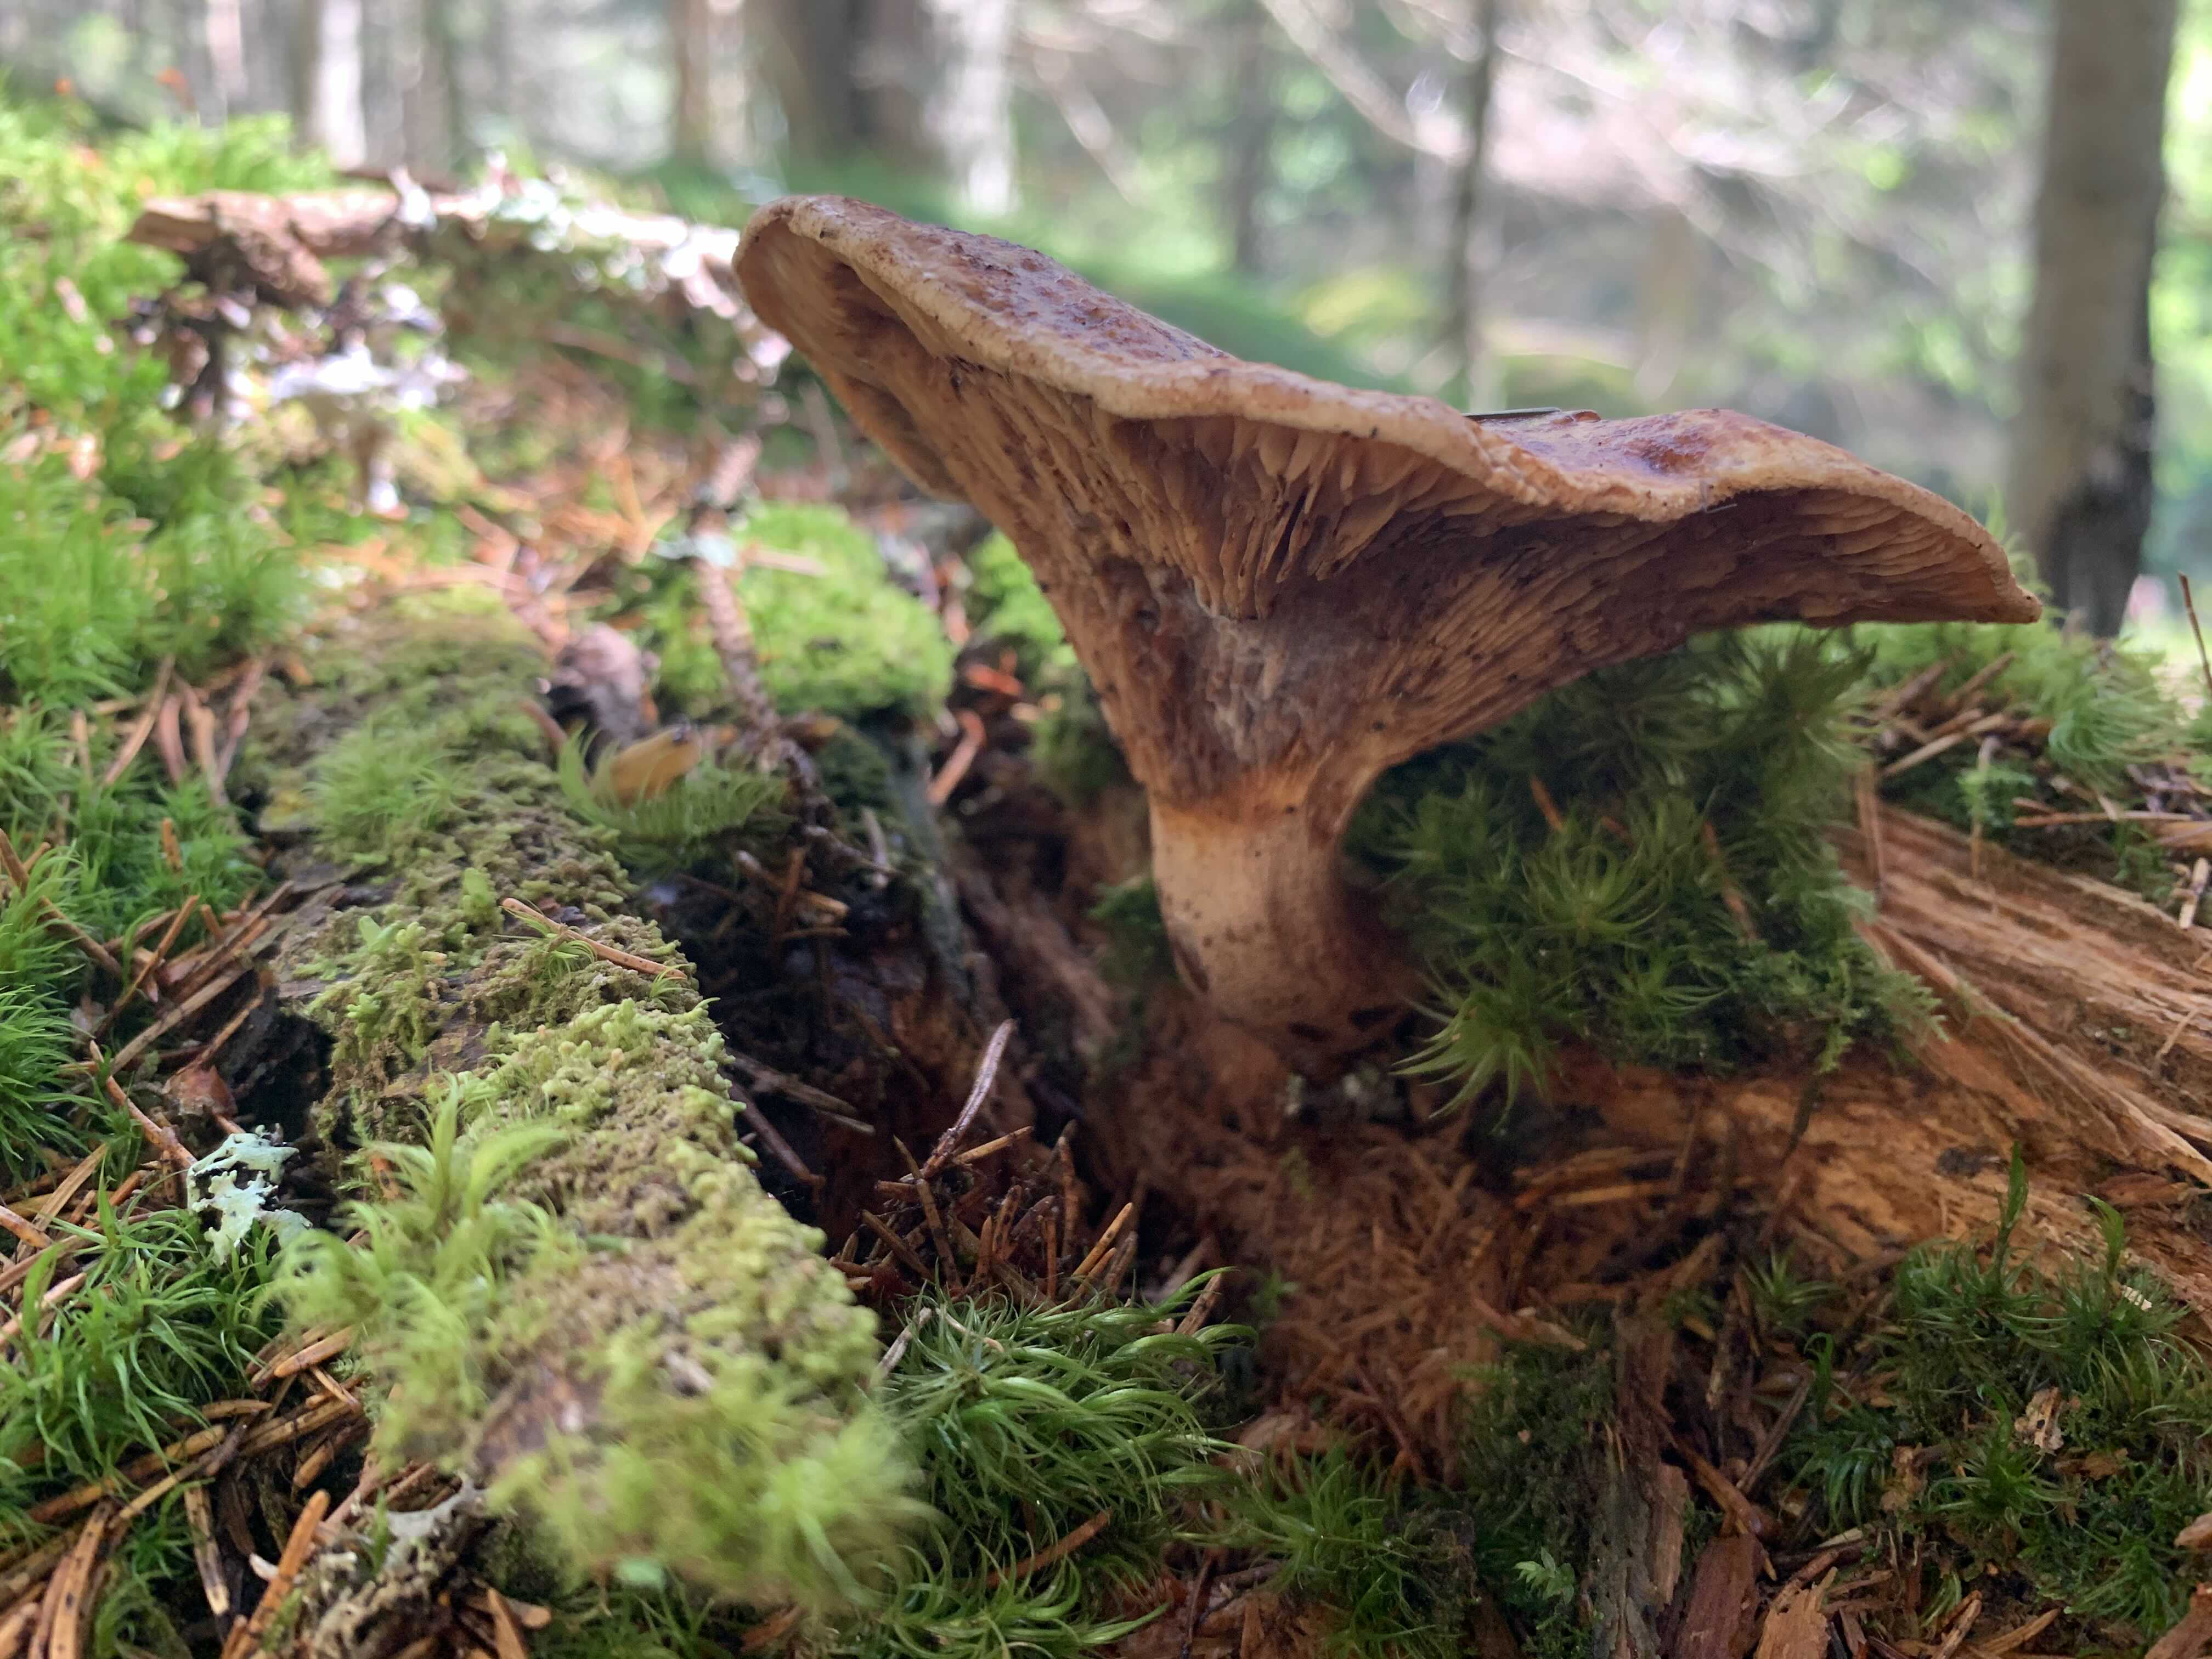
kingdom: Fungi
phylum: Basidiomycota
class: Agaricomycetes
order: Boletales
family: Paxillaceae
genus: Paxillus
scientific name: Paxillus
